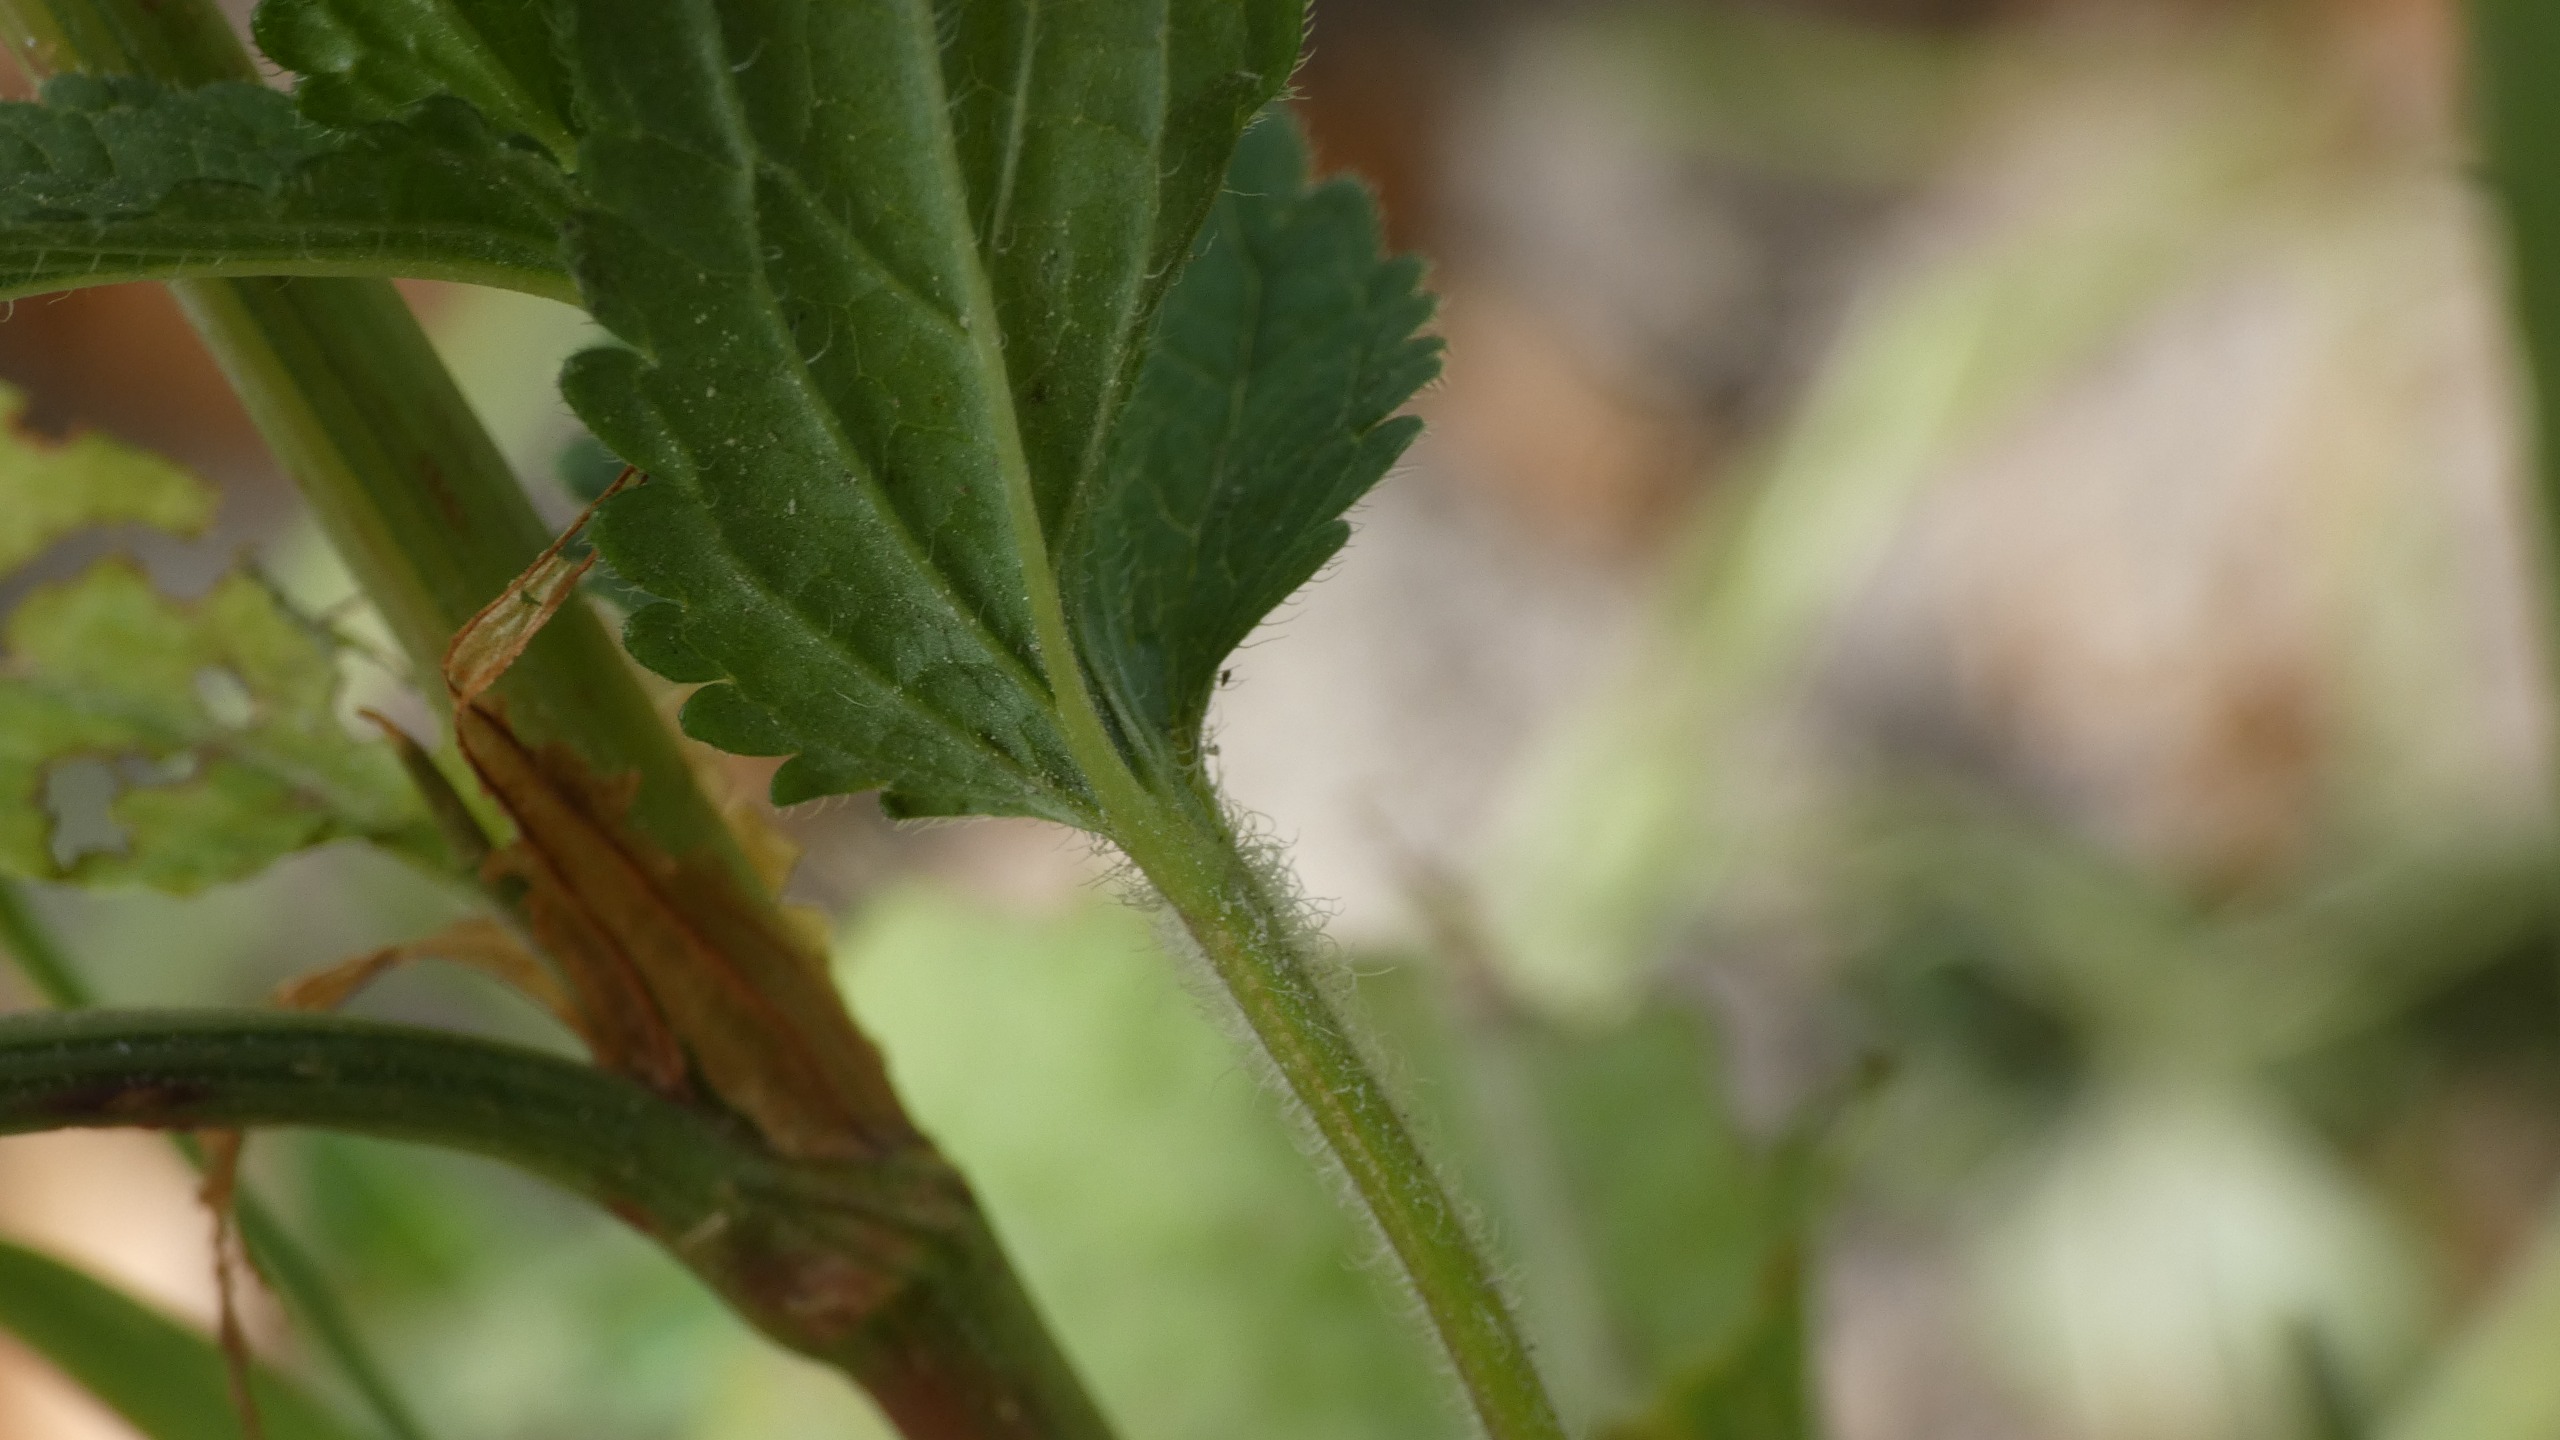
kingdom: Plantae
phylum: Tracheophyta
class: Magnoliopsida
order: Lamiales
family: Plantaginaceae
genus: Veronica
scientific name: Veronica chamaedrys
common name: Tveskægget ærenpris
